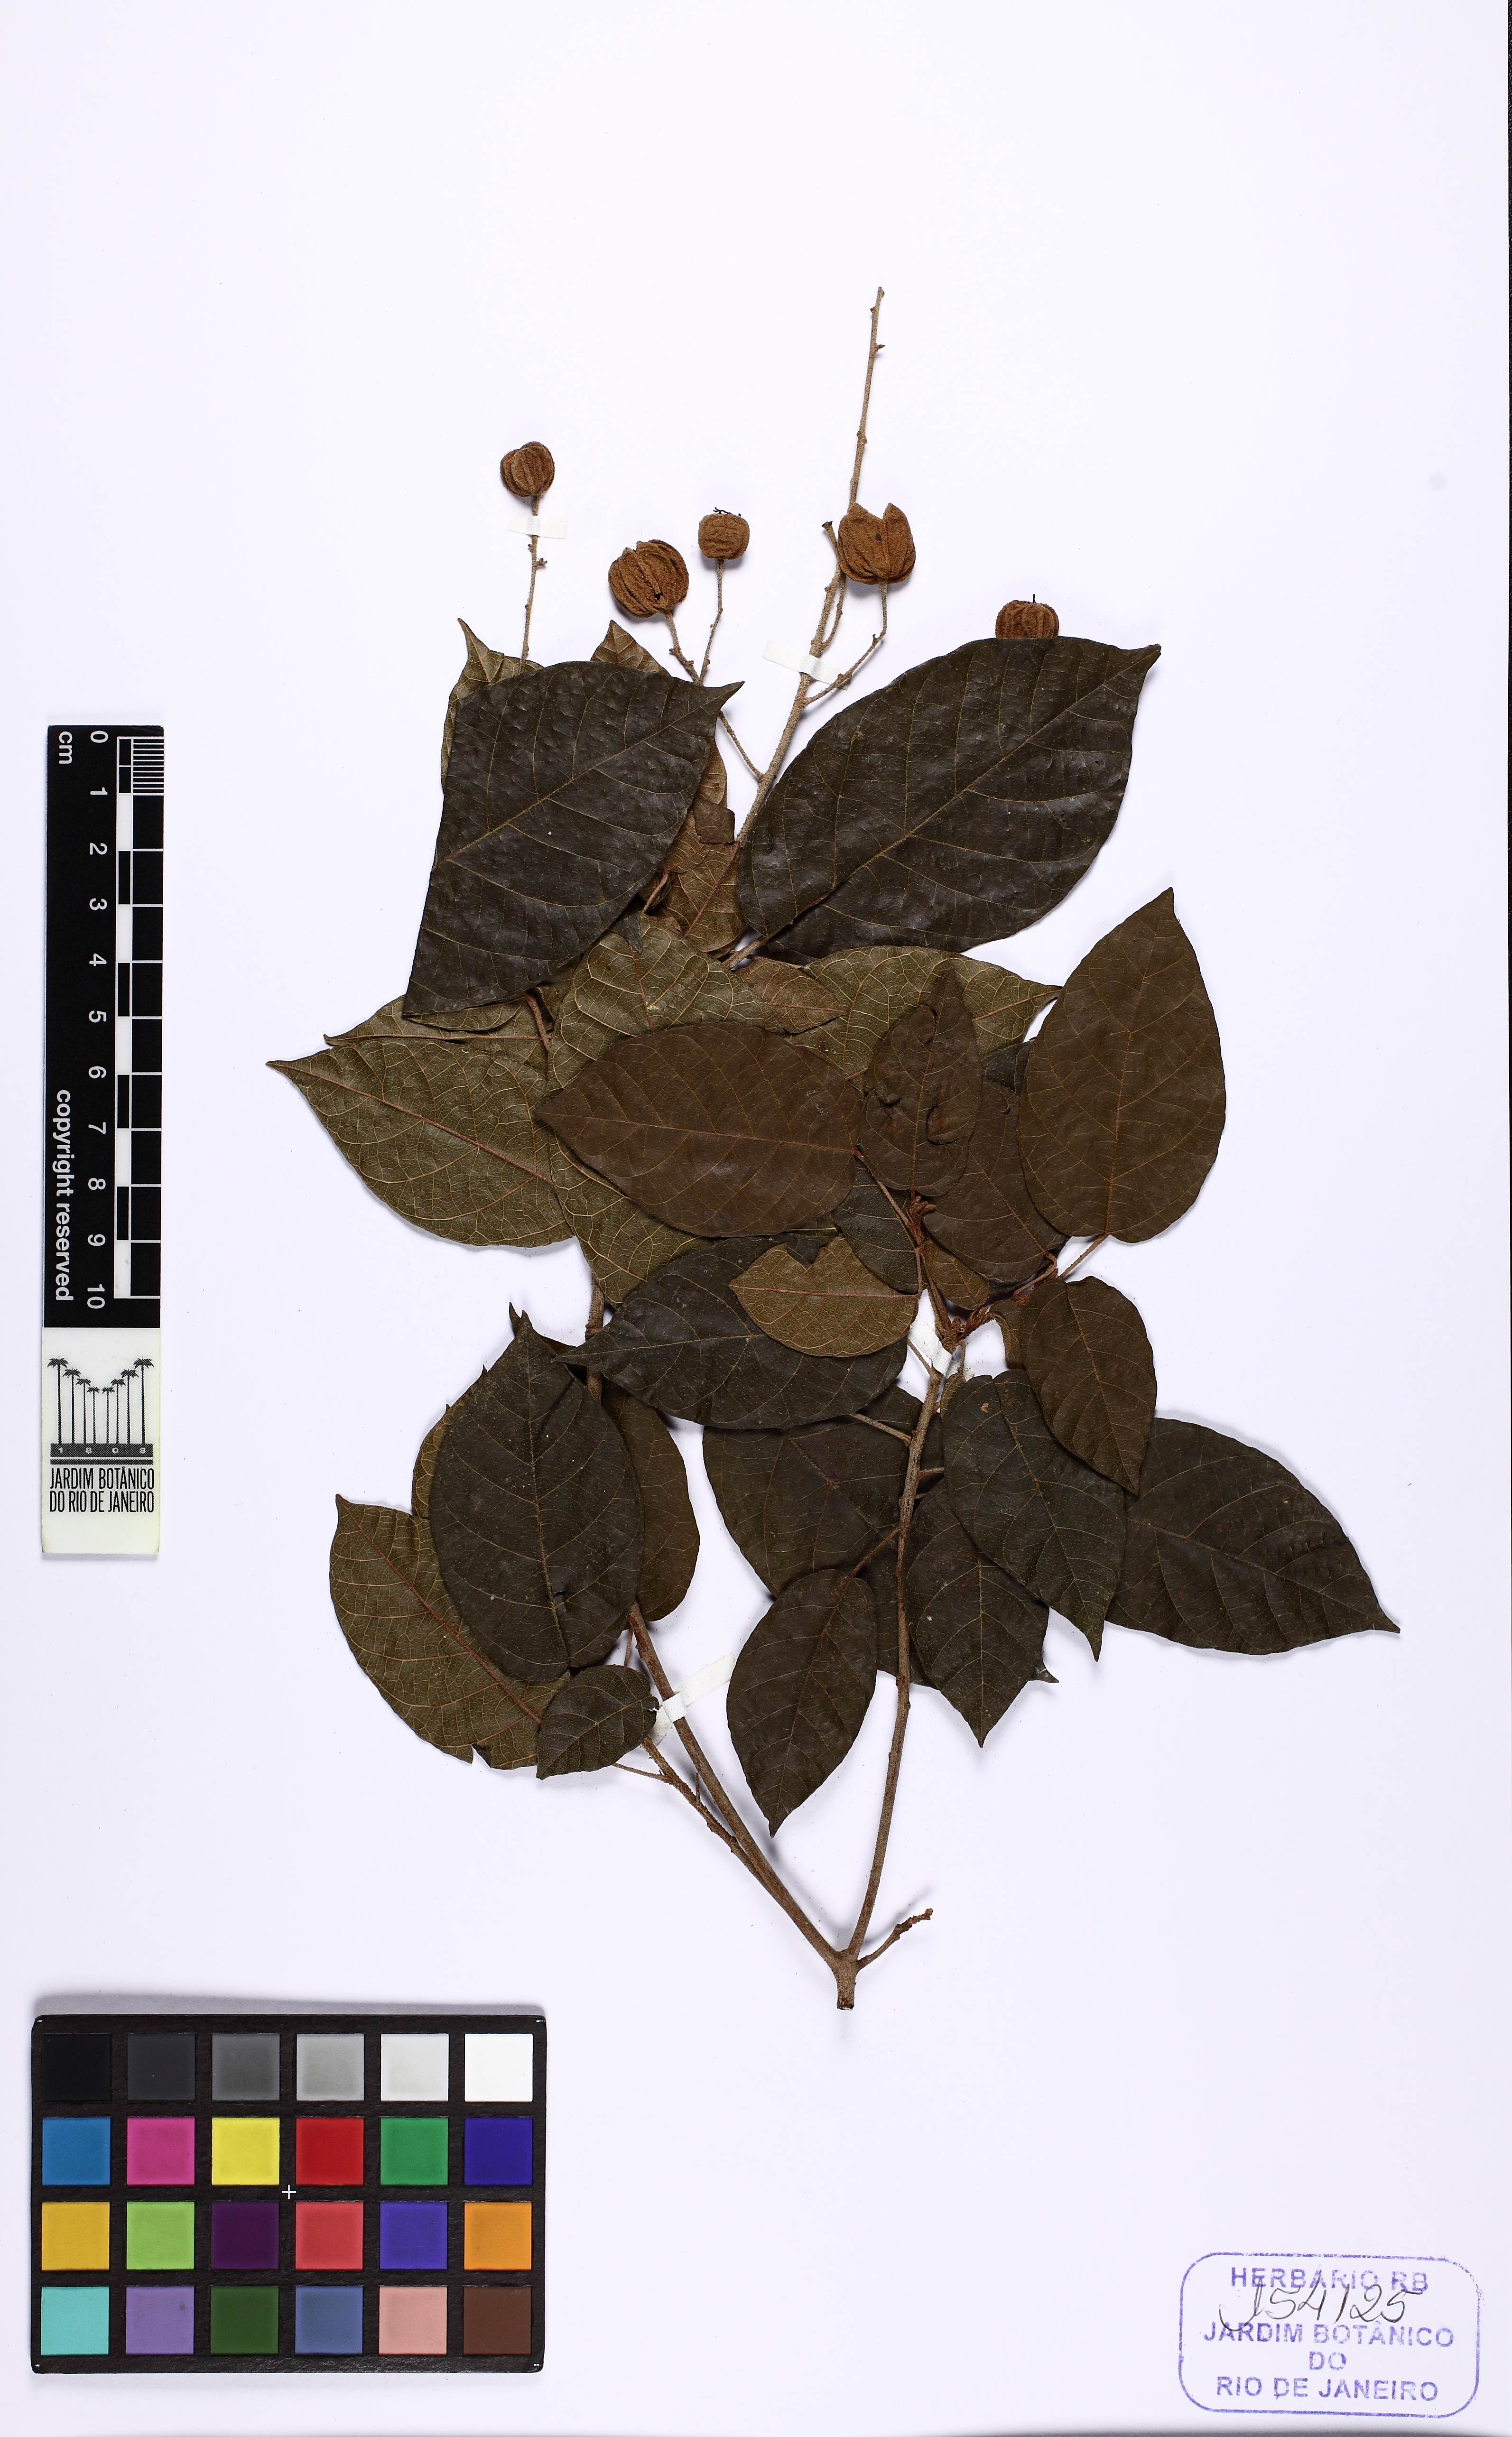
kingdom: Plantae
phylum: Tracheophyta
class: Magnoliopsida
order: Malpighiales
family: Euphorbiaceae
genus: Brasiliocroton
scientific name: Brasiliocroton mamoninha
